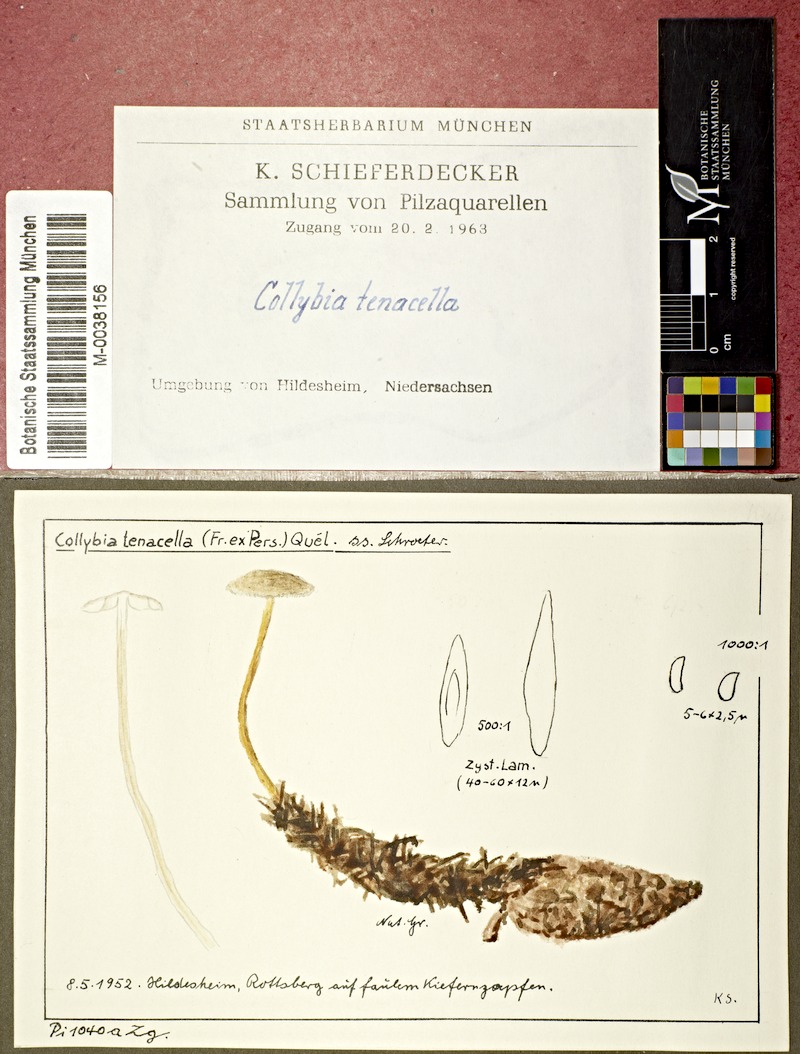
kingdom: Fungi
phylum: Basidiomycota
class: Agaricomycetes
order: Agaricales
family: Physalacriaceae
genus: Strobilurus
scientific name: Strobilurus tenacellus
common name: Pinecone cap
